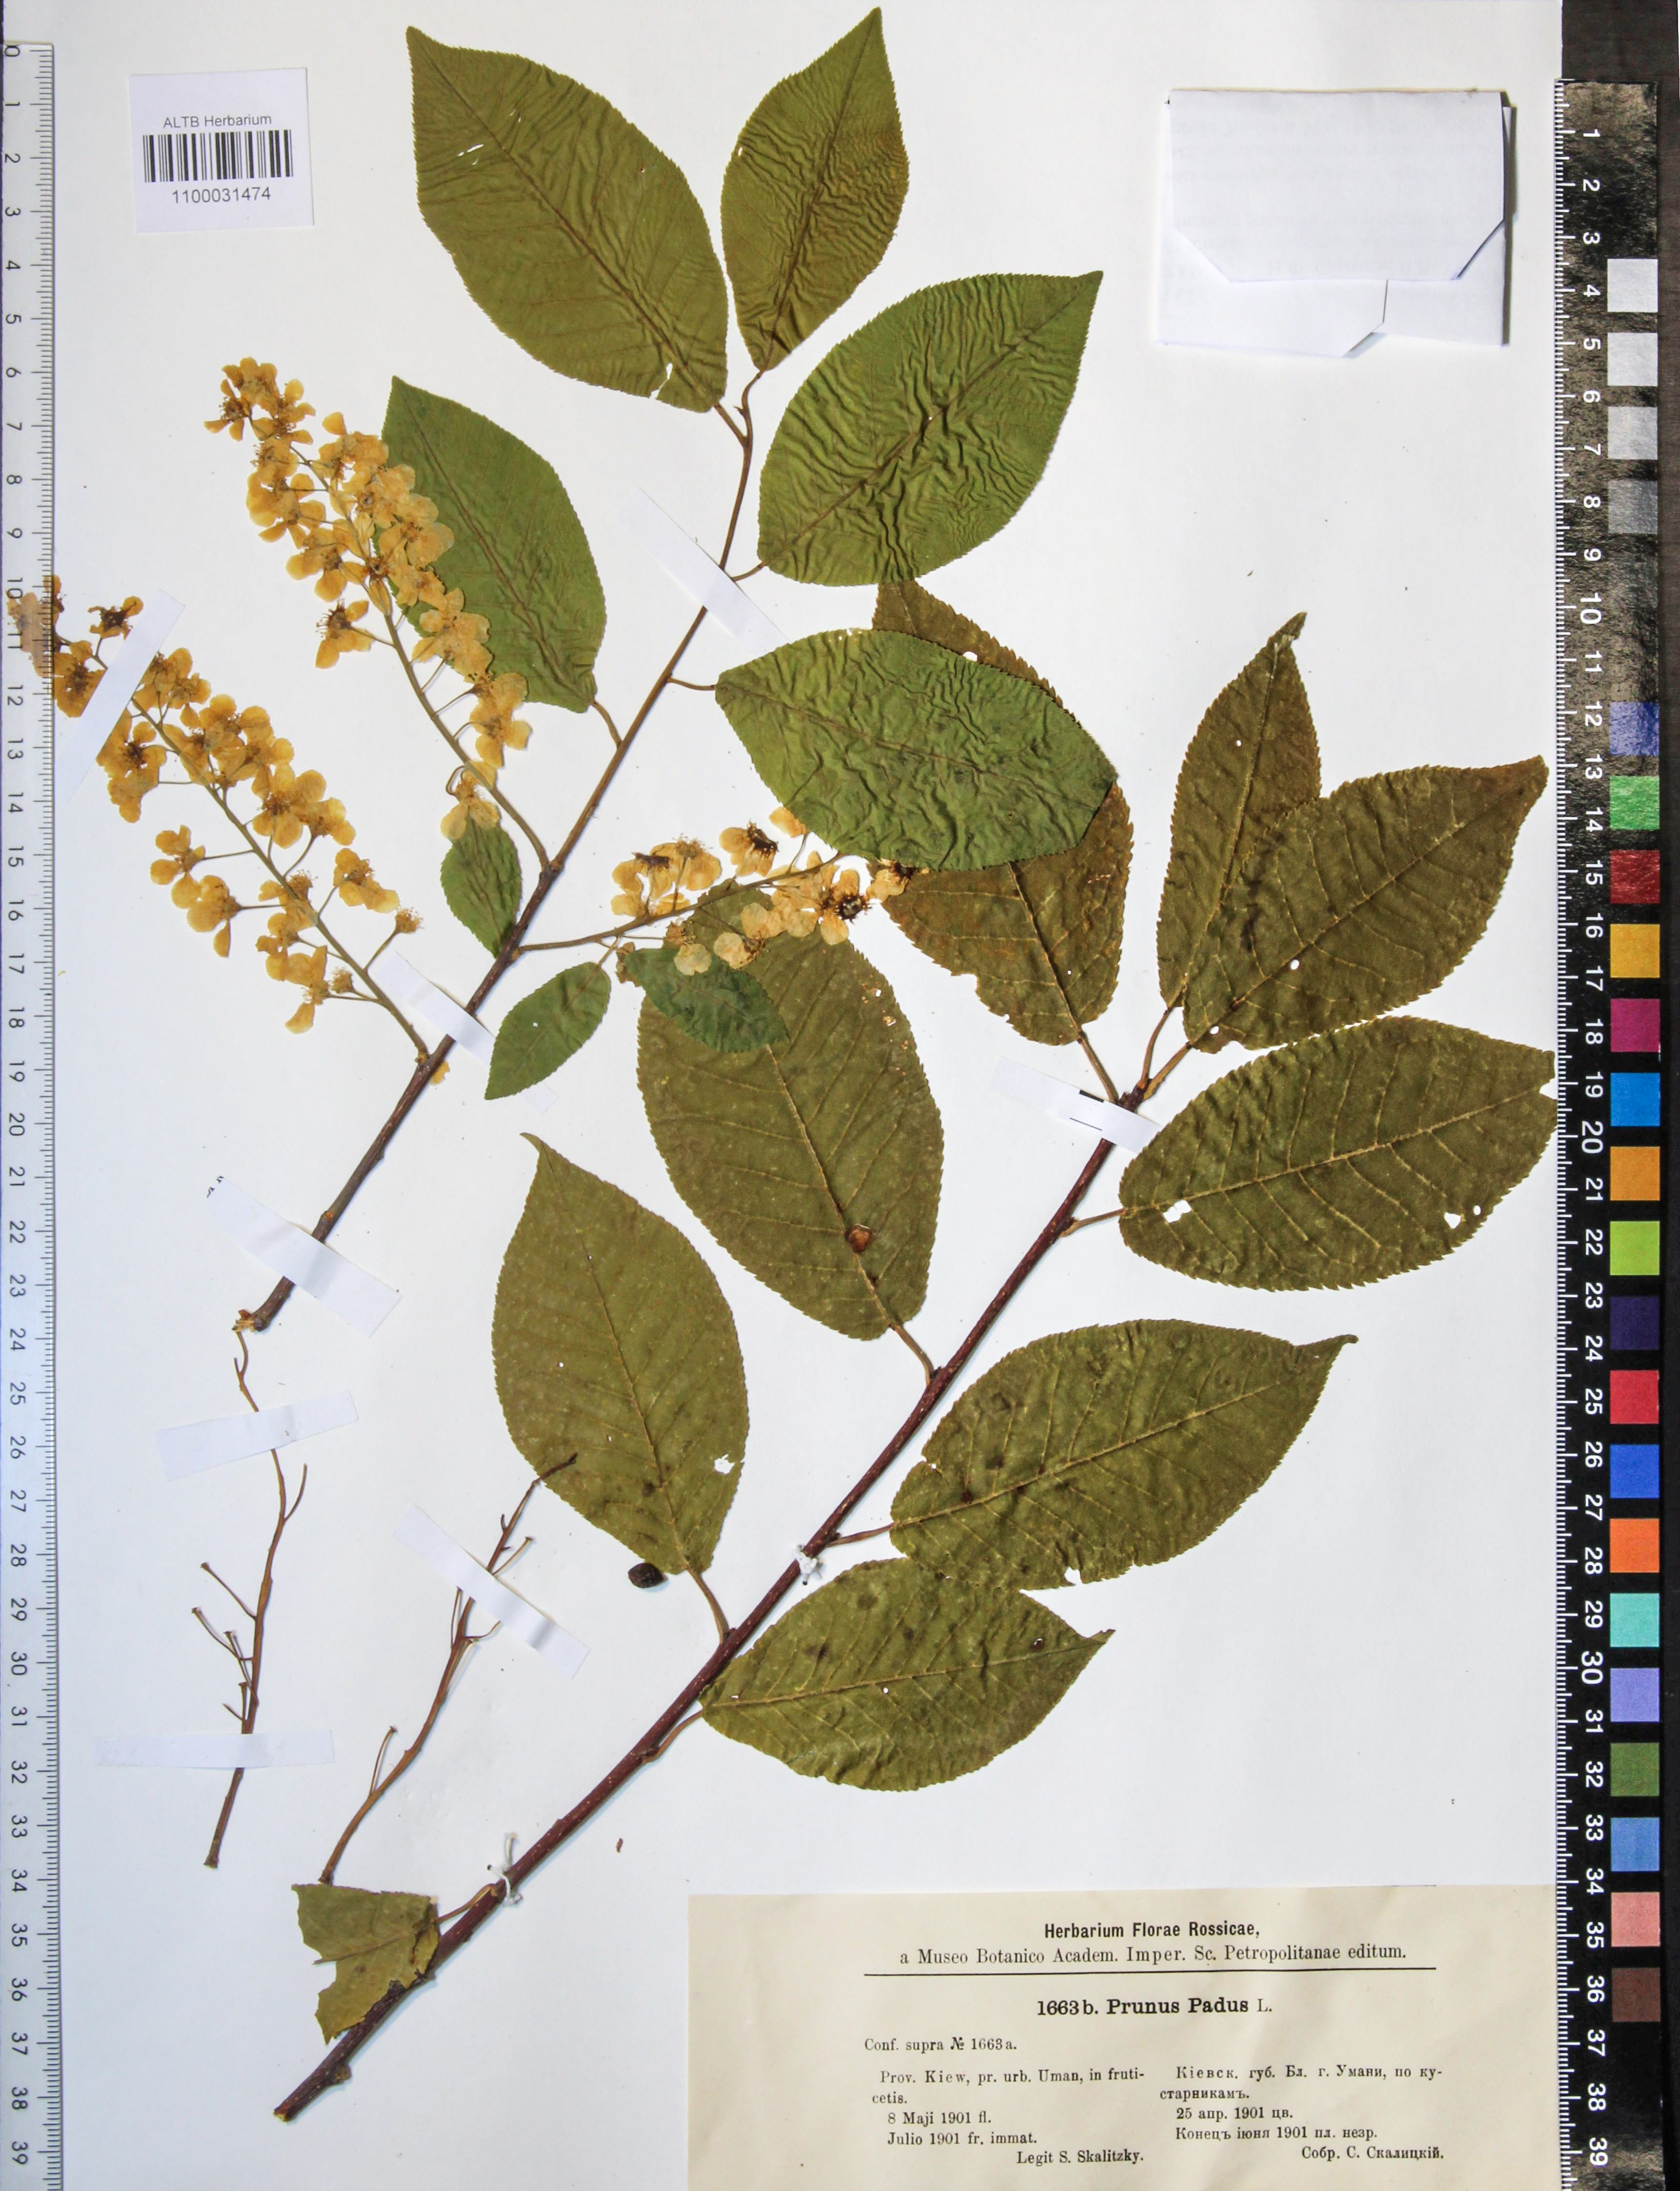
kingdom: Plantae
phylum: Tracheophyta
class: Magnoliopsida
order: Rosales
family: Rosaceae
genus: Prunus
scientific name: Prunus padus
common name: Bird cherry
